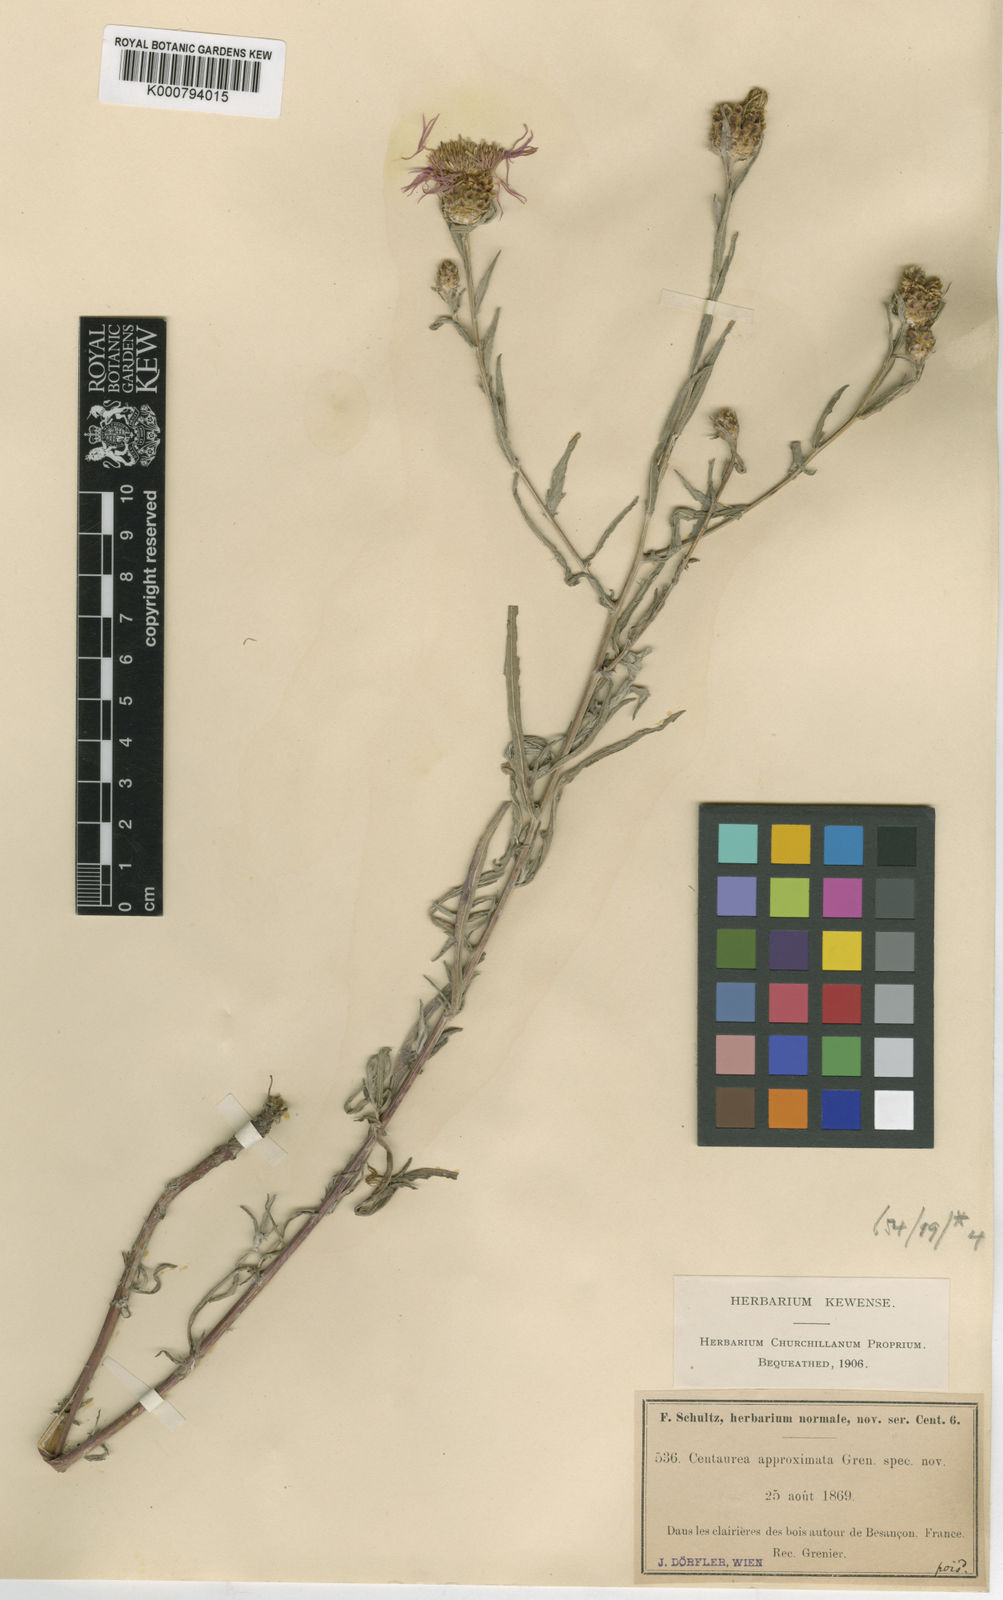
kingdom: Plantae
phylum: Tracheophyta
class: Magnoliopsida
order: Asterales
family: Asteraceae
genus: Centaurea
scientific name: Centaurea jacea
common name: Brown knapweed
